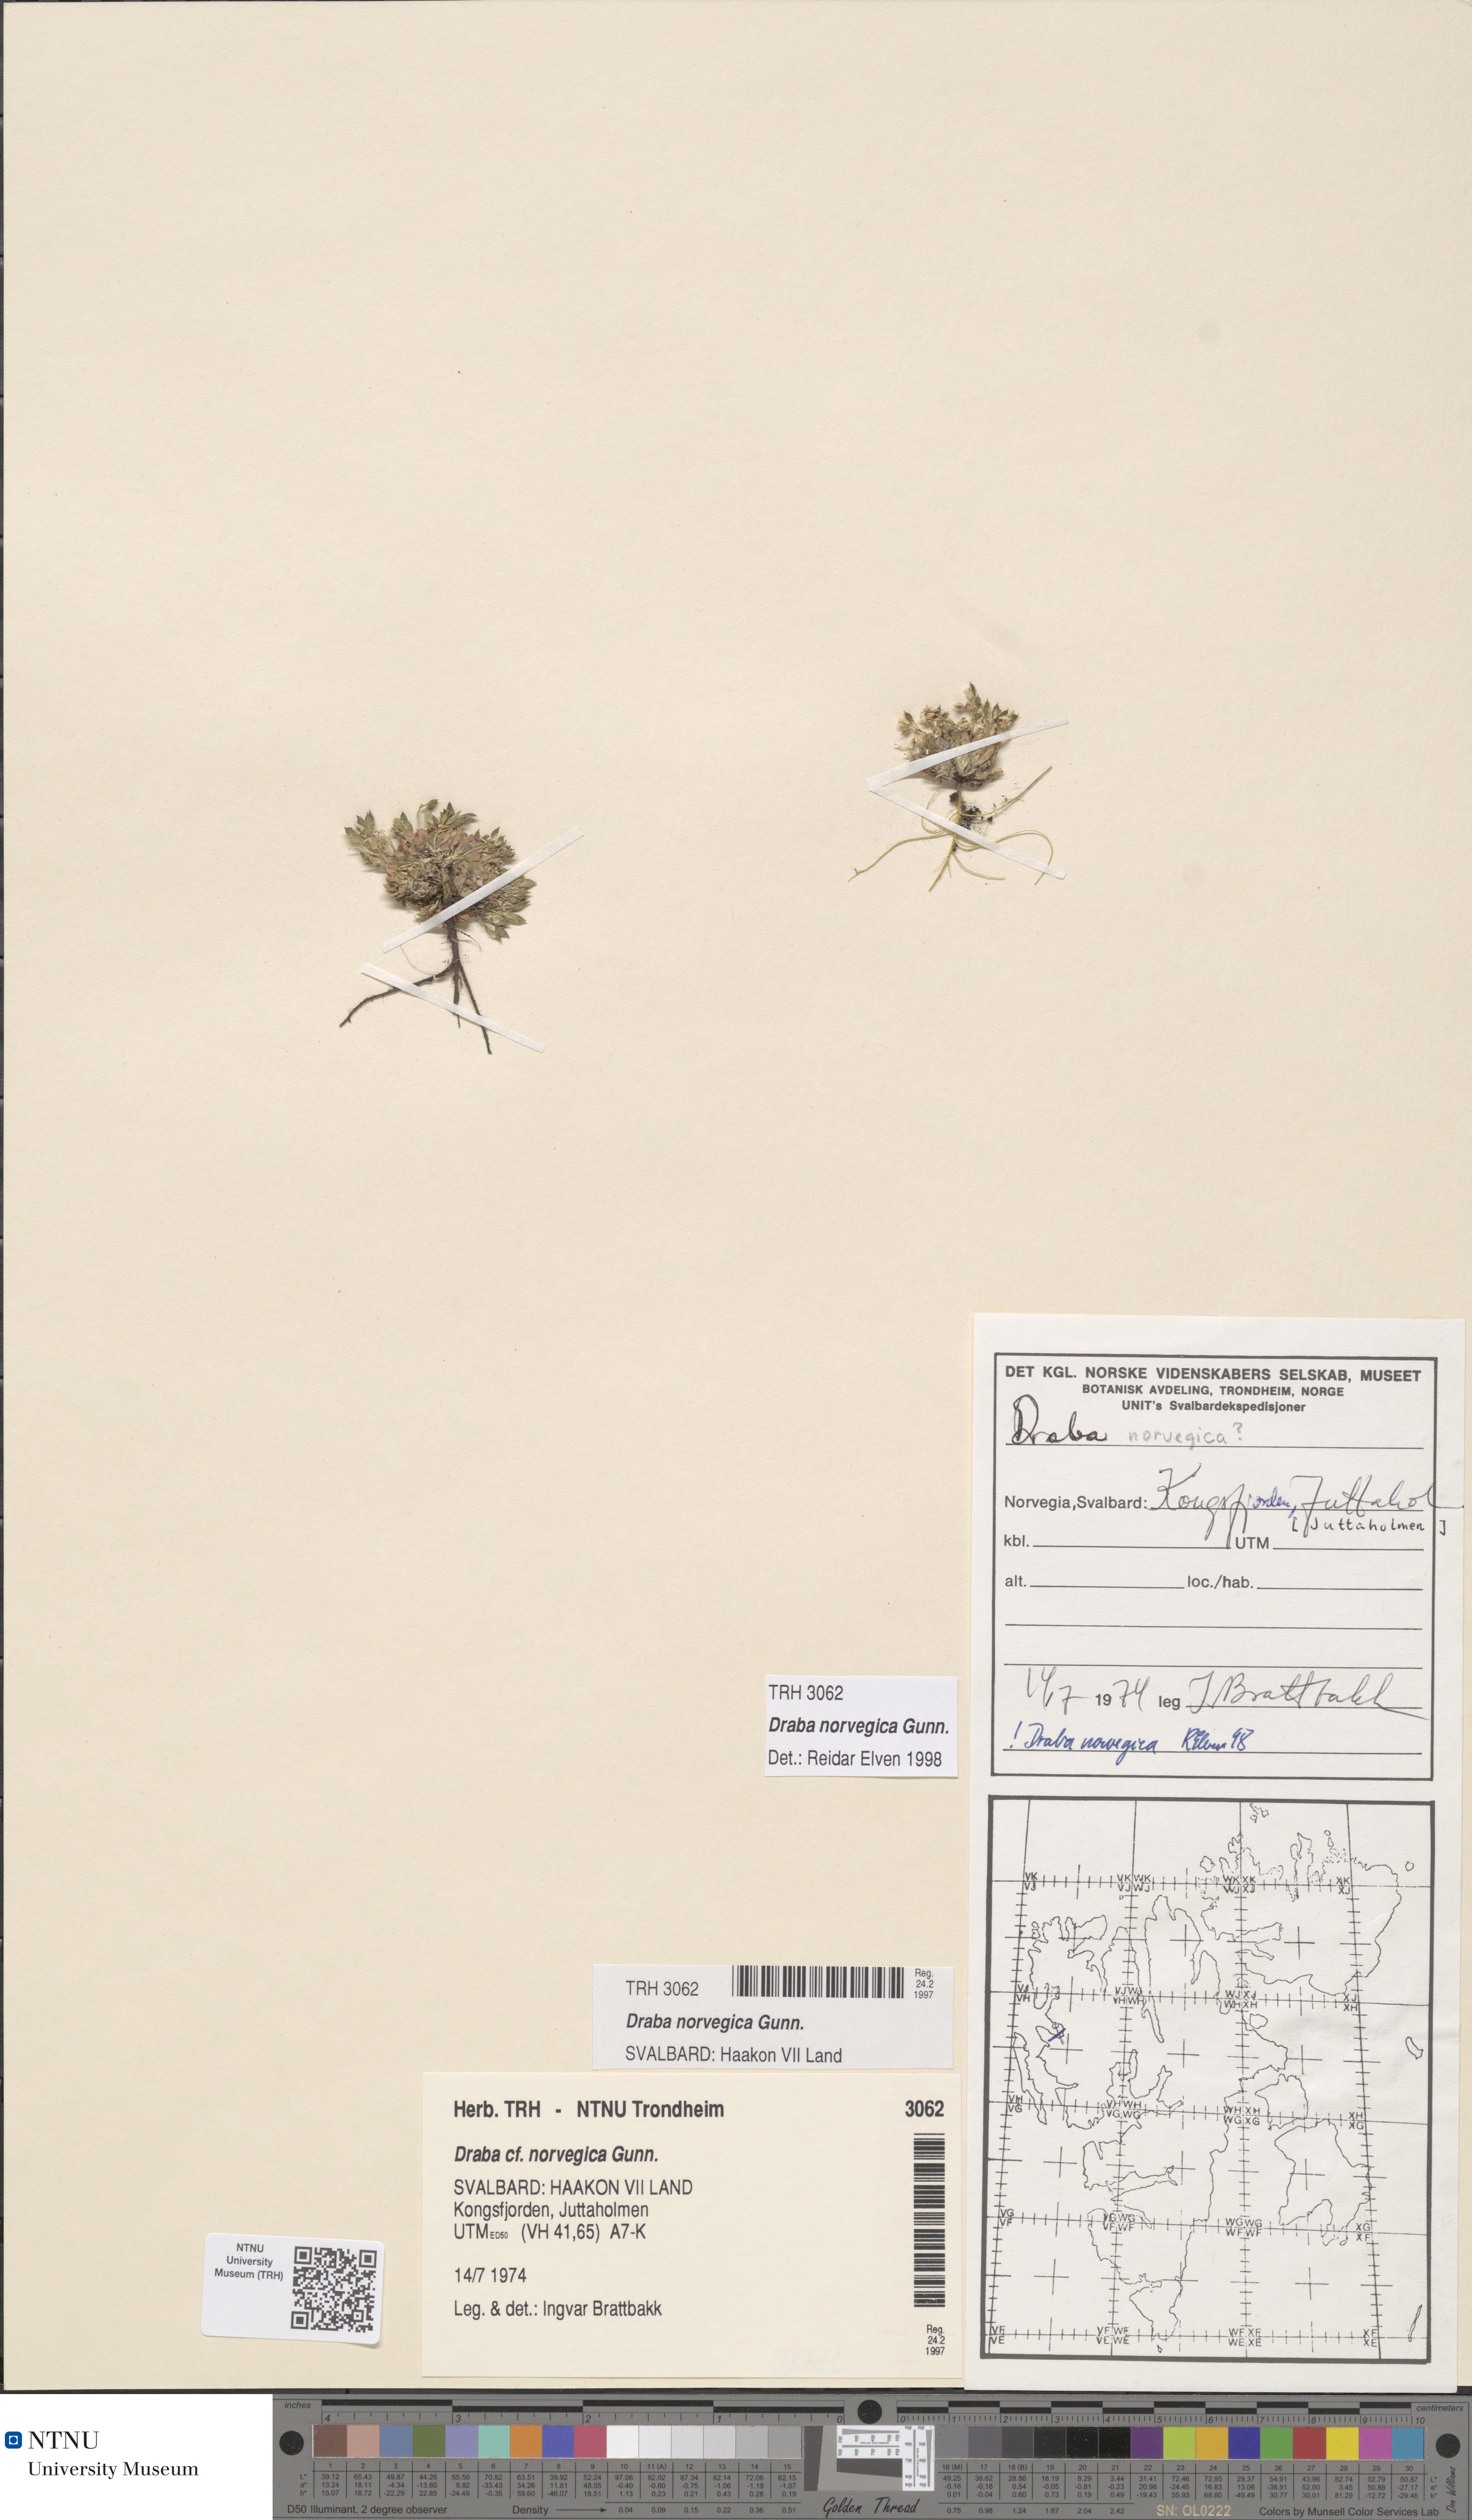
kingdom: Plantae
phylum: Tracheophyta
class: Magnoliopsida
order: Brassicales
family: Brassicaceae
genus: Draba
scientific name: Draba norvegica
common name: Rock whitlowgrass
